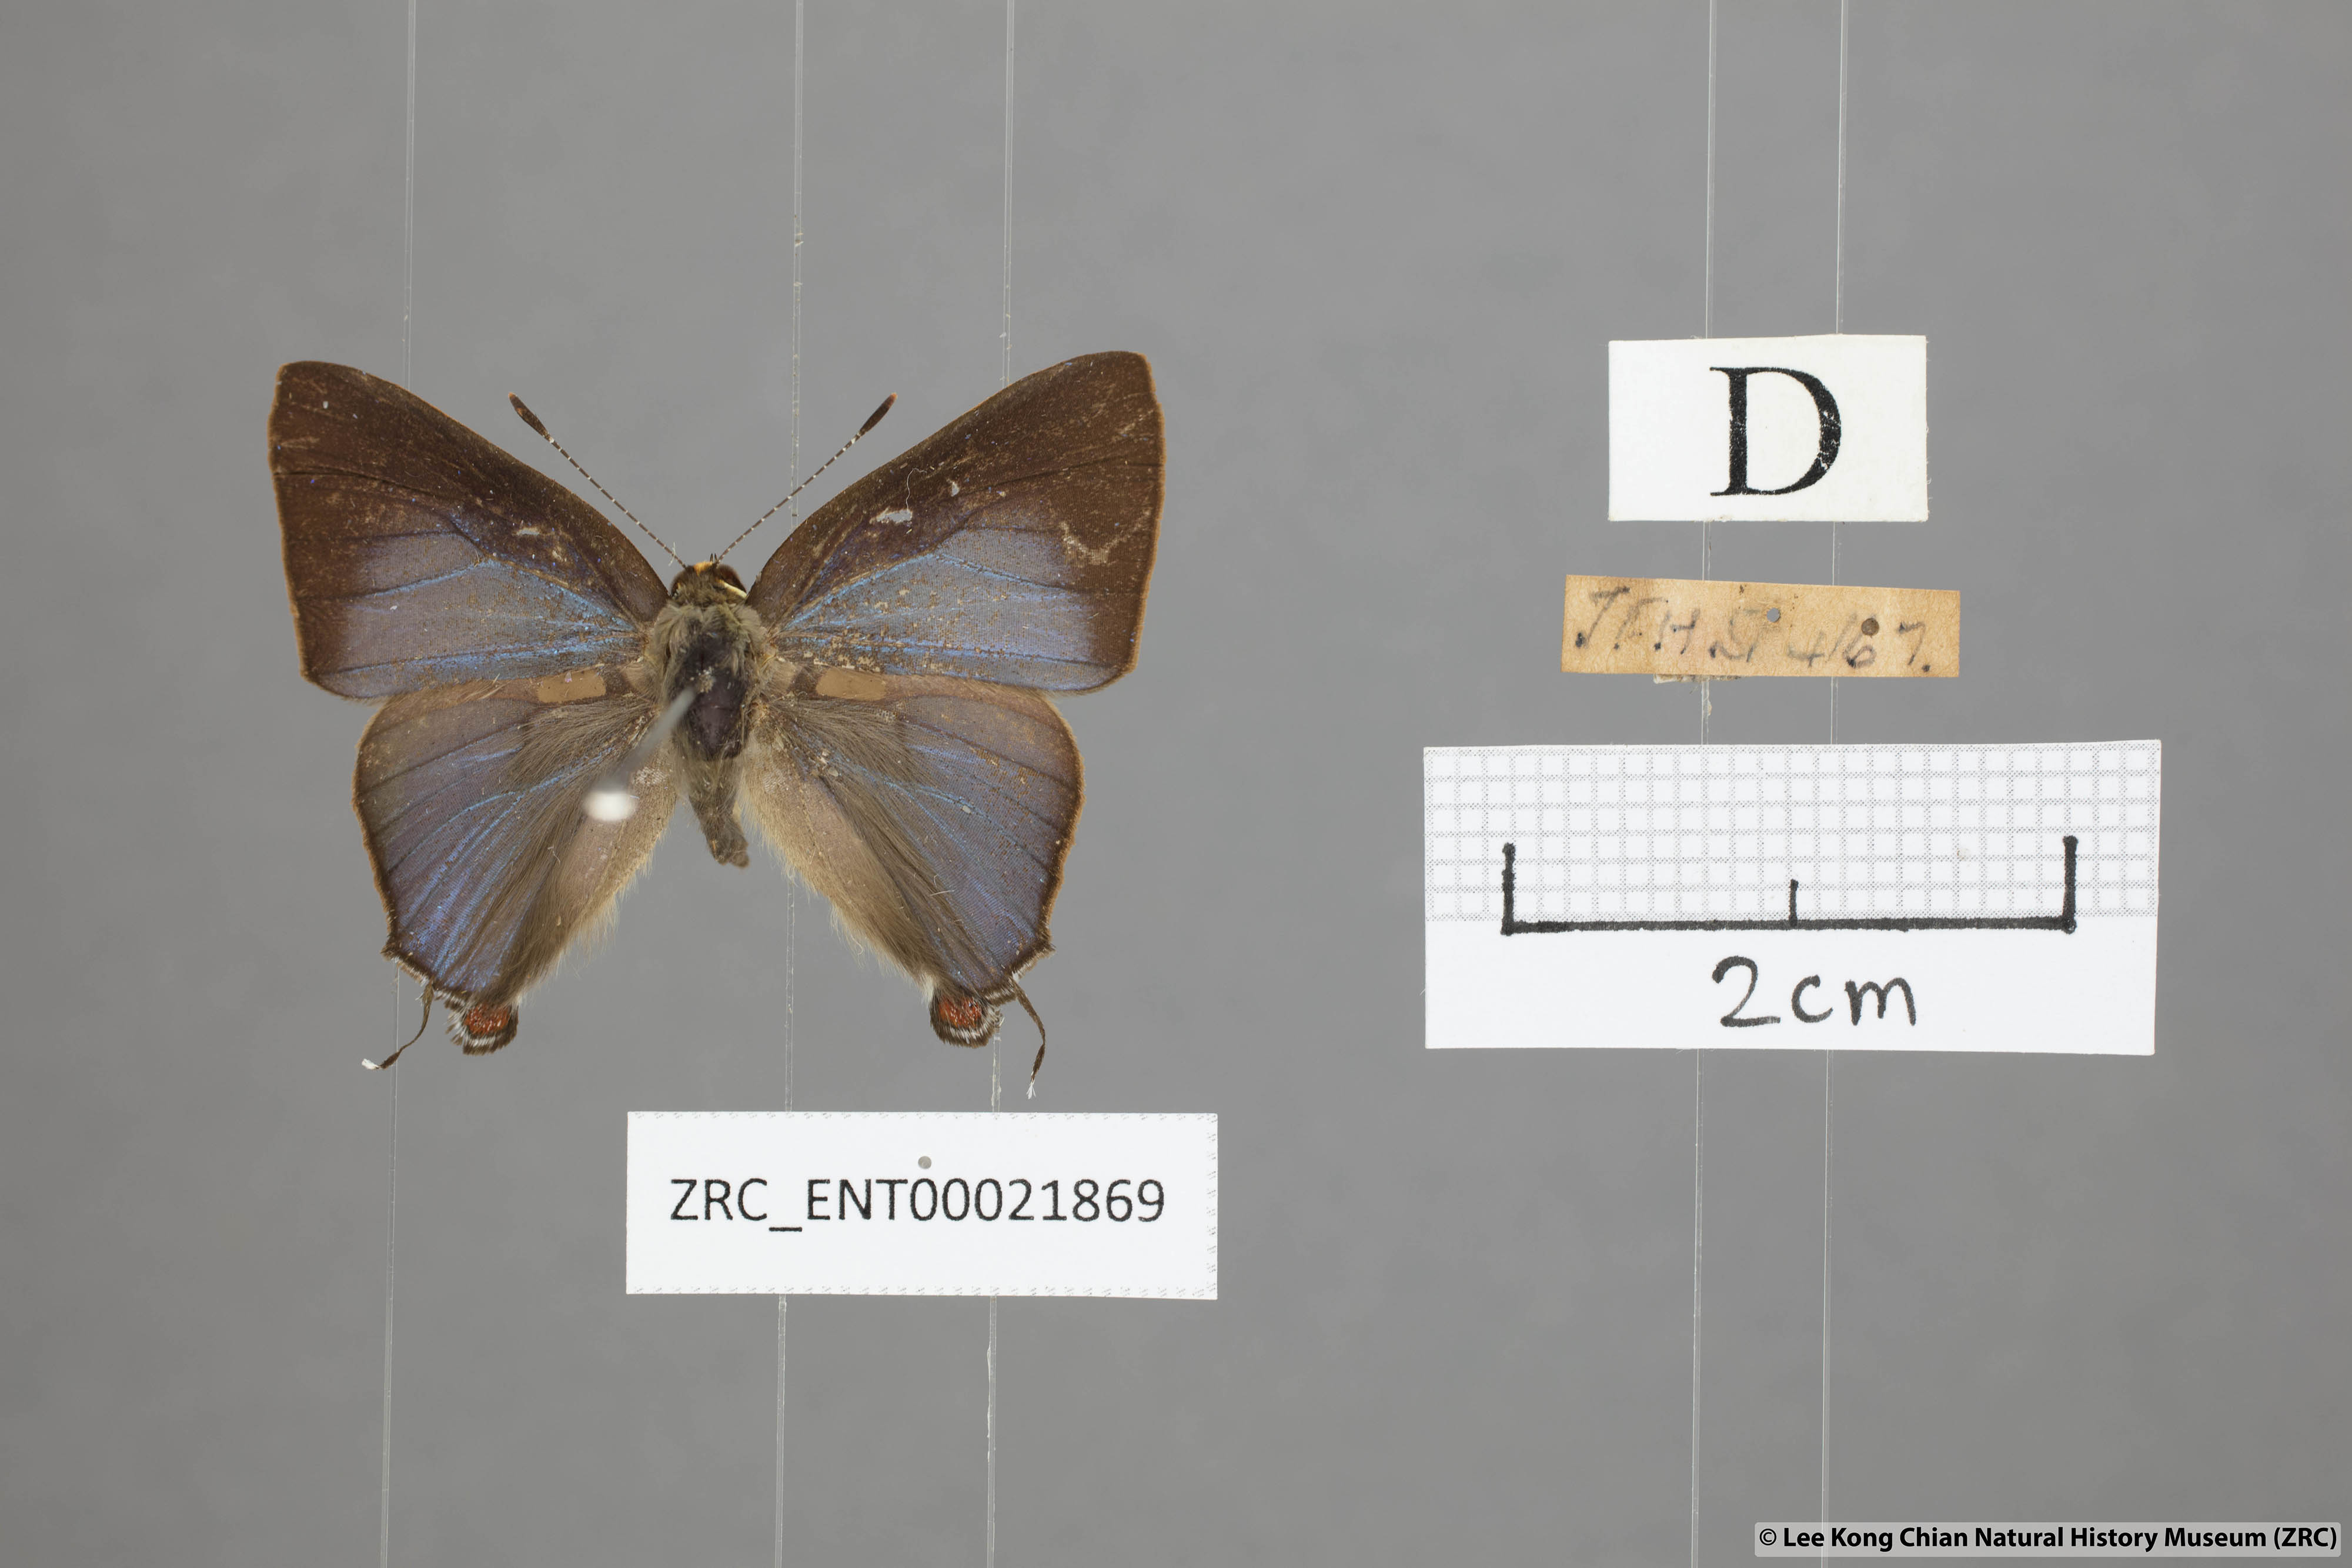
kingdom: Animalia
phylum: Arthropoda
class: Insecta
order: Lepidoptera
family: Lycaenidae
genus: Rapala
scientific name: Rapala nissa
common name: Common flash
